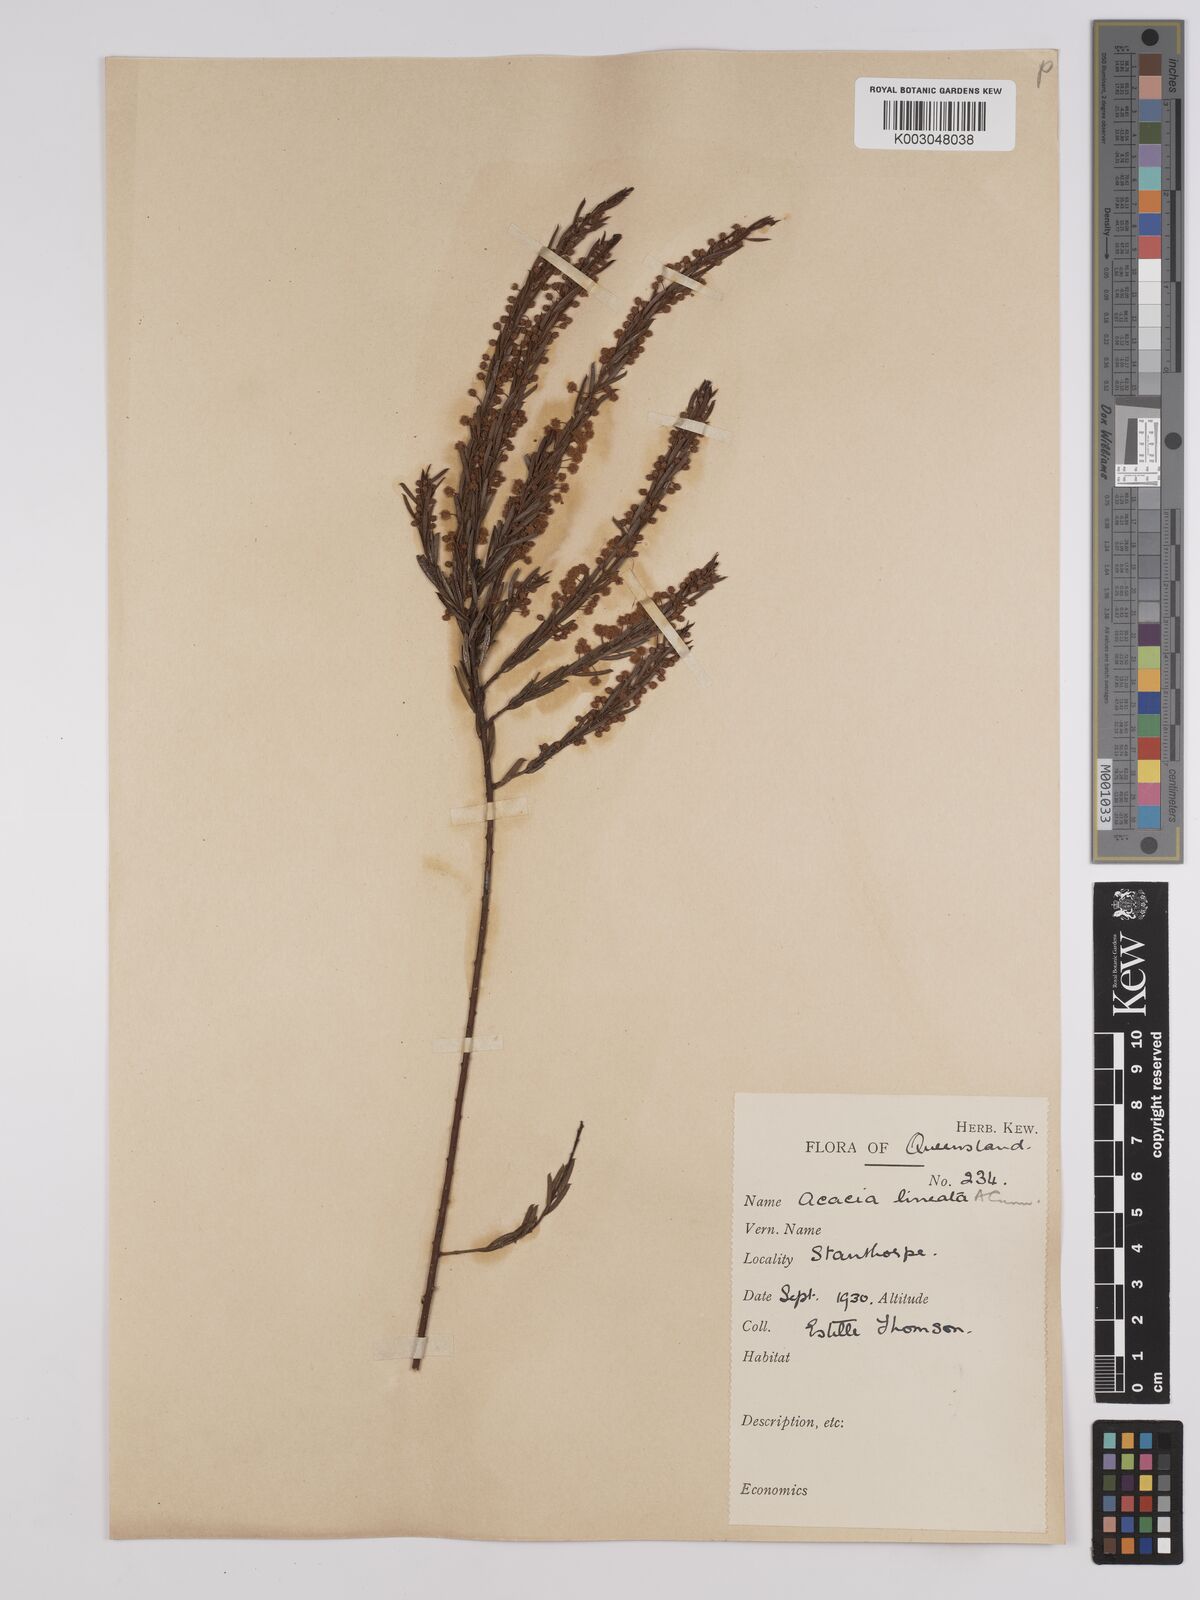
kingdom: Plantae
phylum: Tracheophyta
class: Magnoliopsida
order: Fabales
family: Fabaceae
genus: Acacia
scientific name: Acacia lineata
